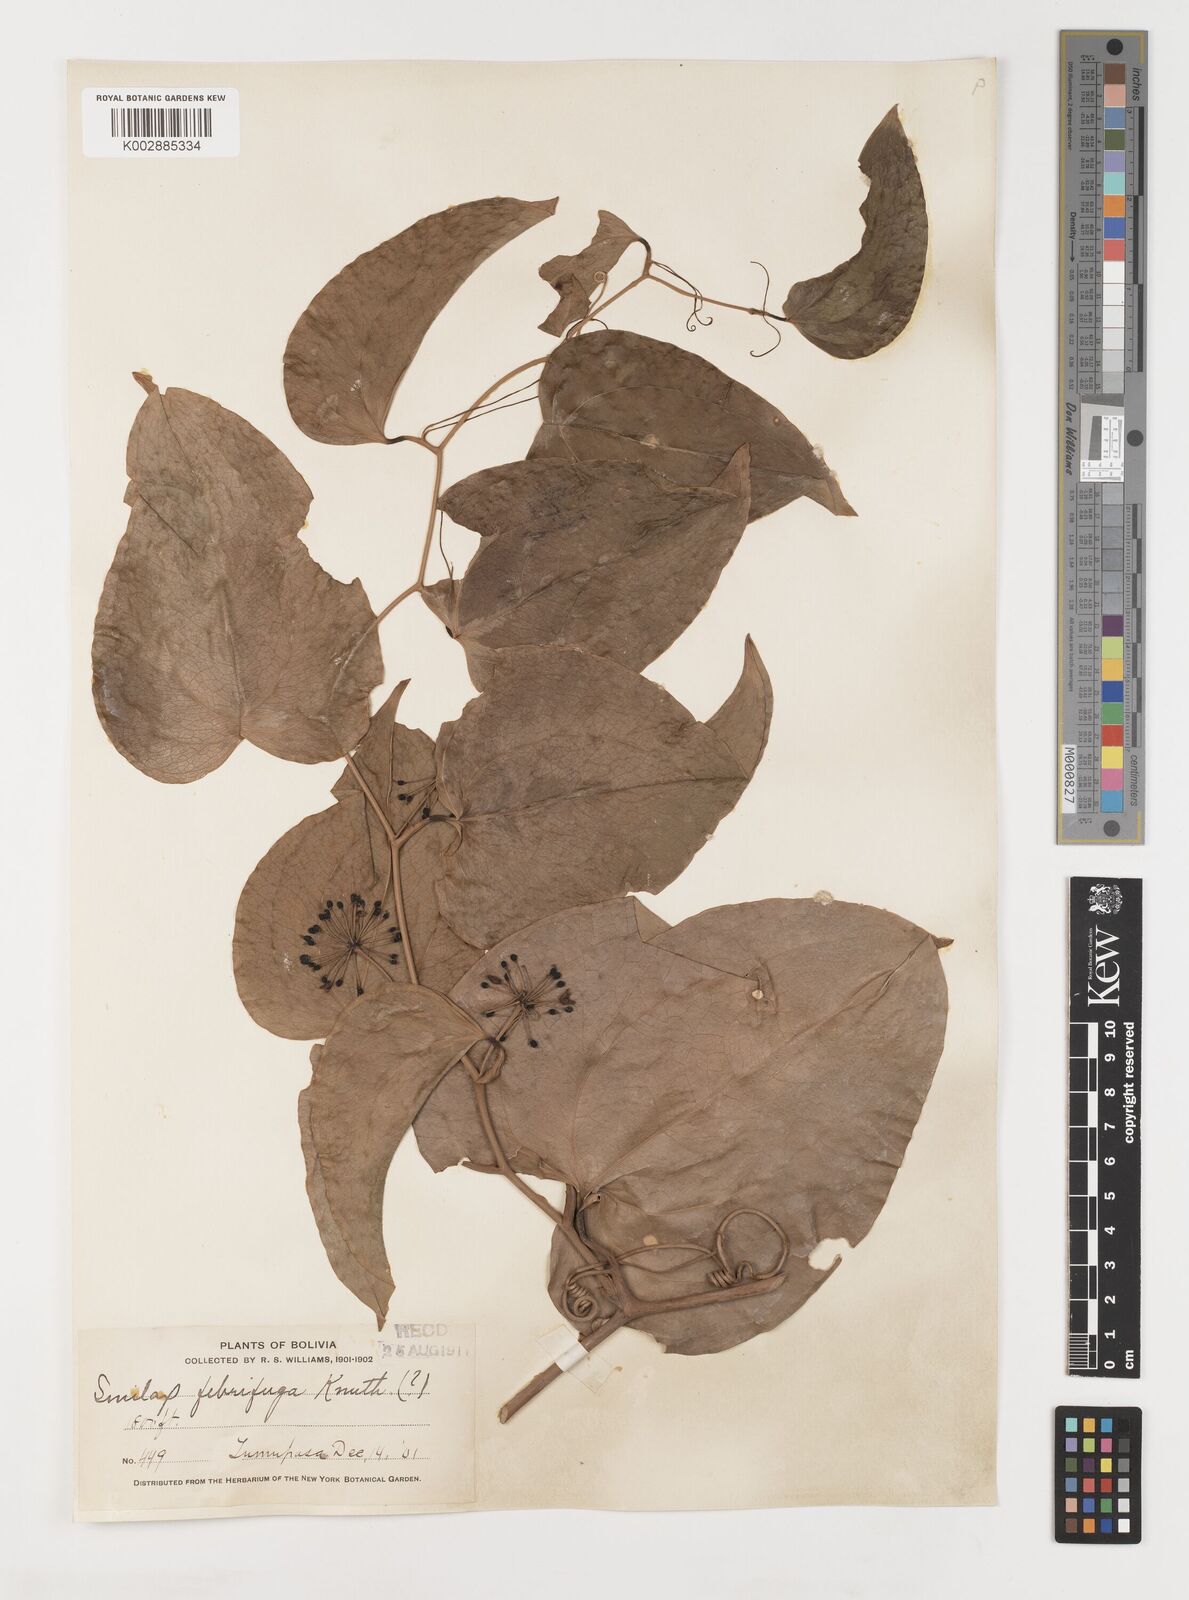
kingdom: Plantae
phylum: Tracheophyta
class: Liliopsida
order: Liliales
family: Smilacaceae
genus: Smilax
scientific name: Smilax purhampuy
